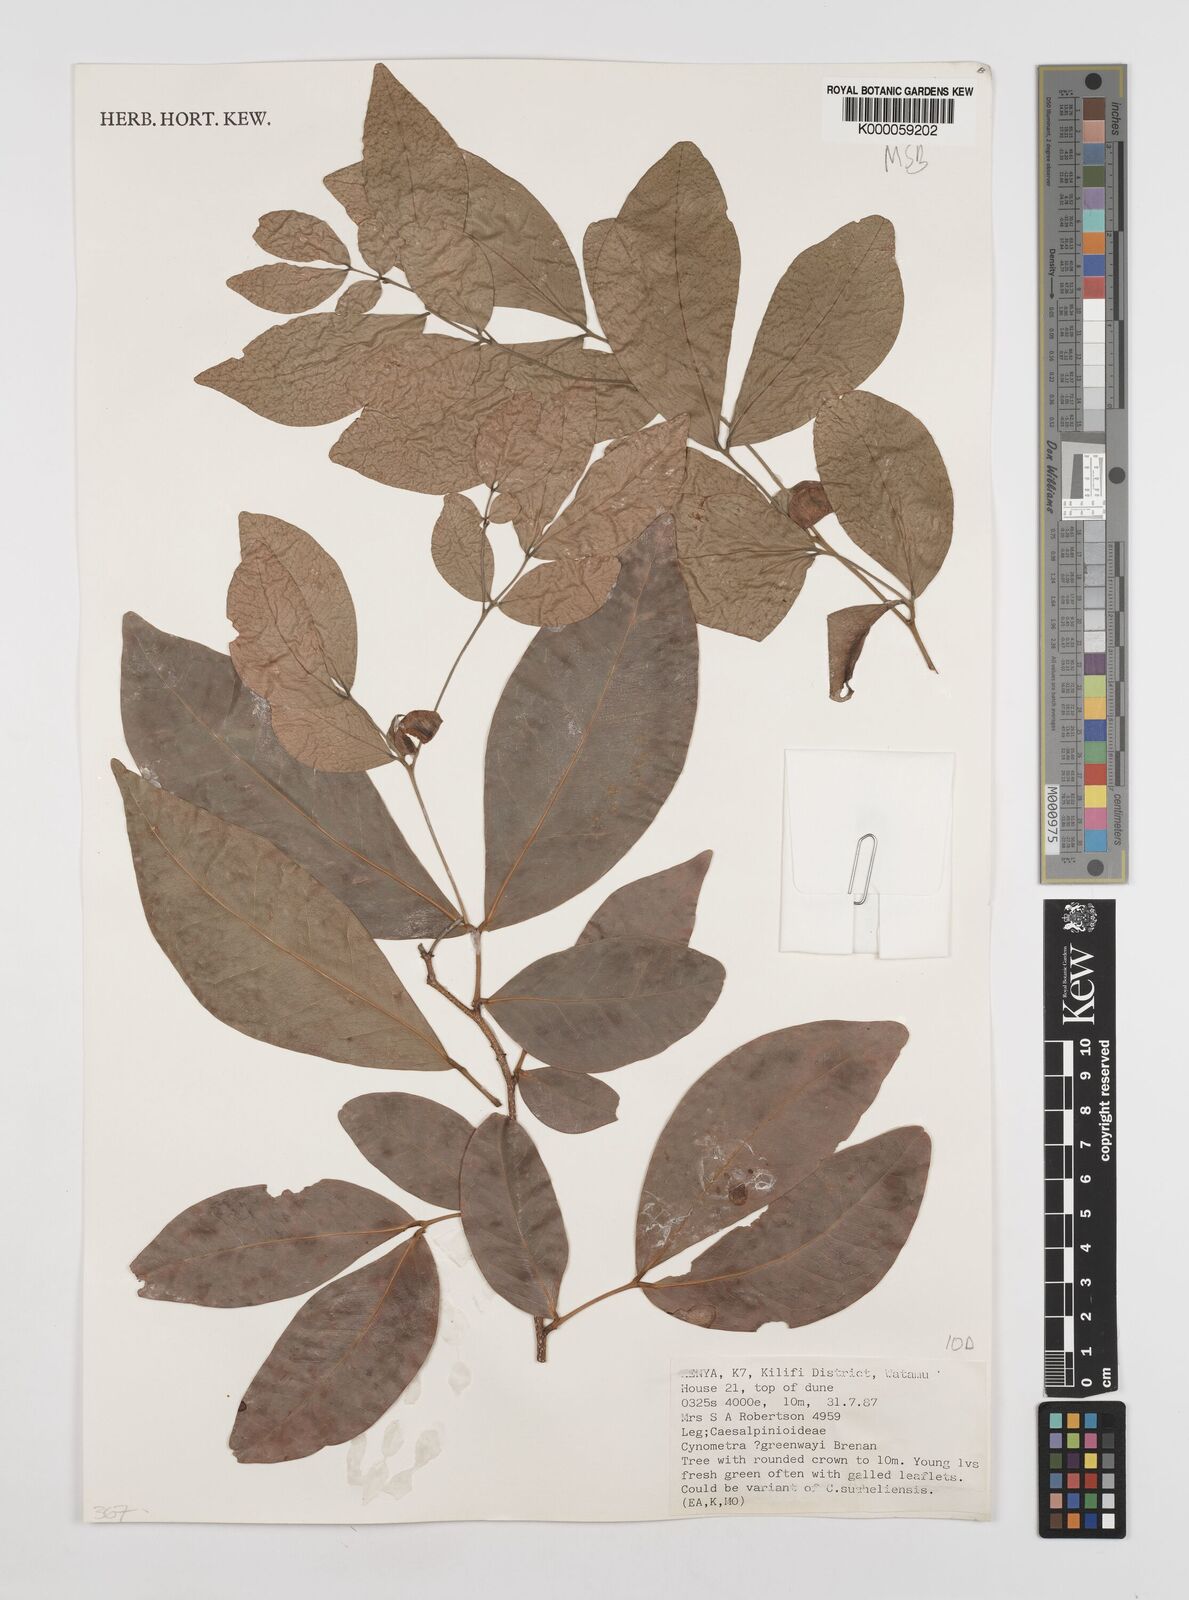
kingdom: Plantae
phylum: Tracheophyta
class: Magnoliopsida
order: Fabales
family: Fabaceae
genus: Cynometra
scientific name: Cynometra greenwayi
